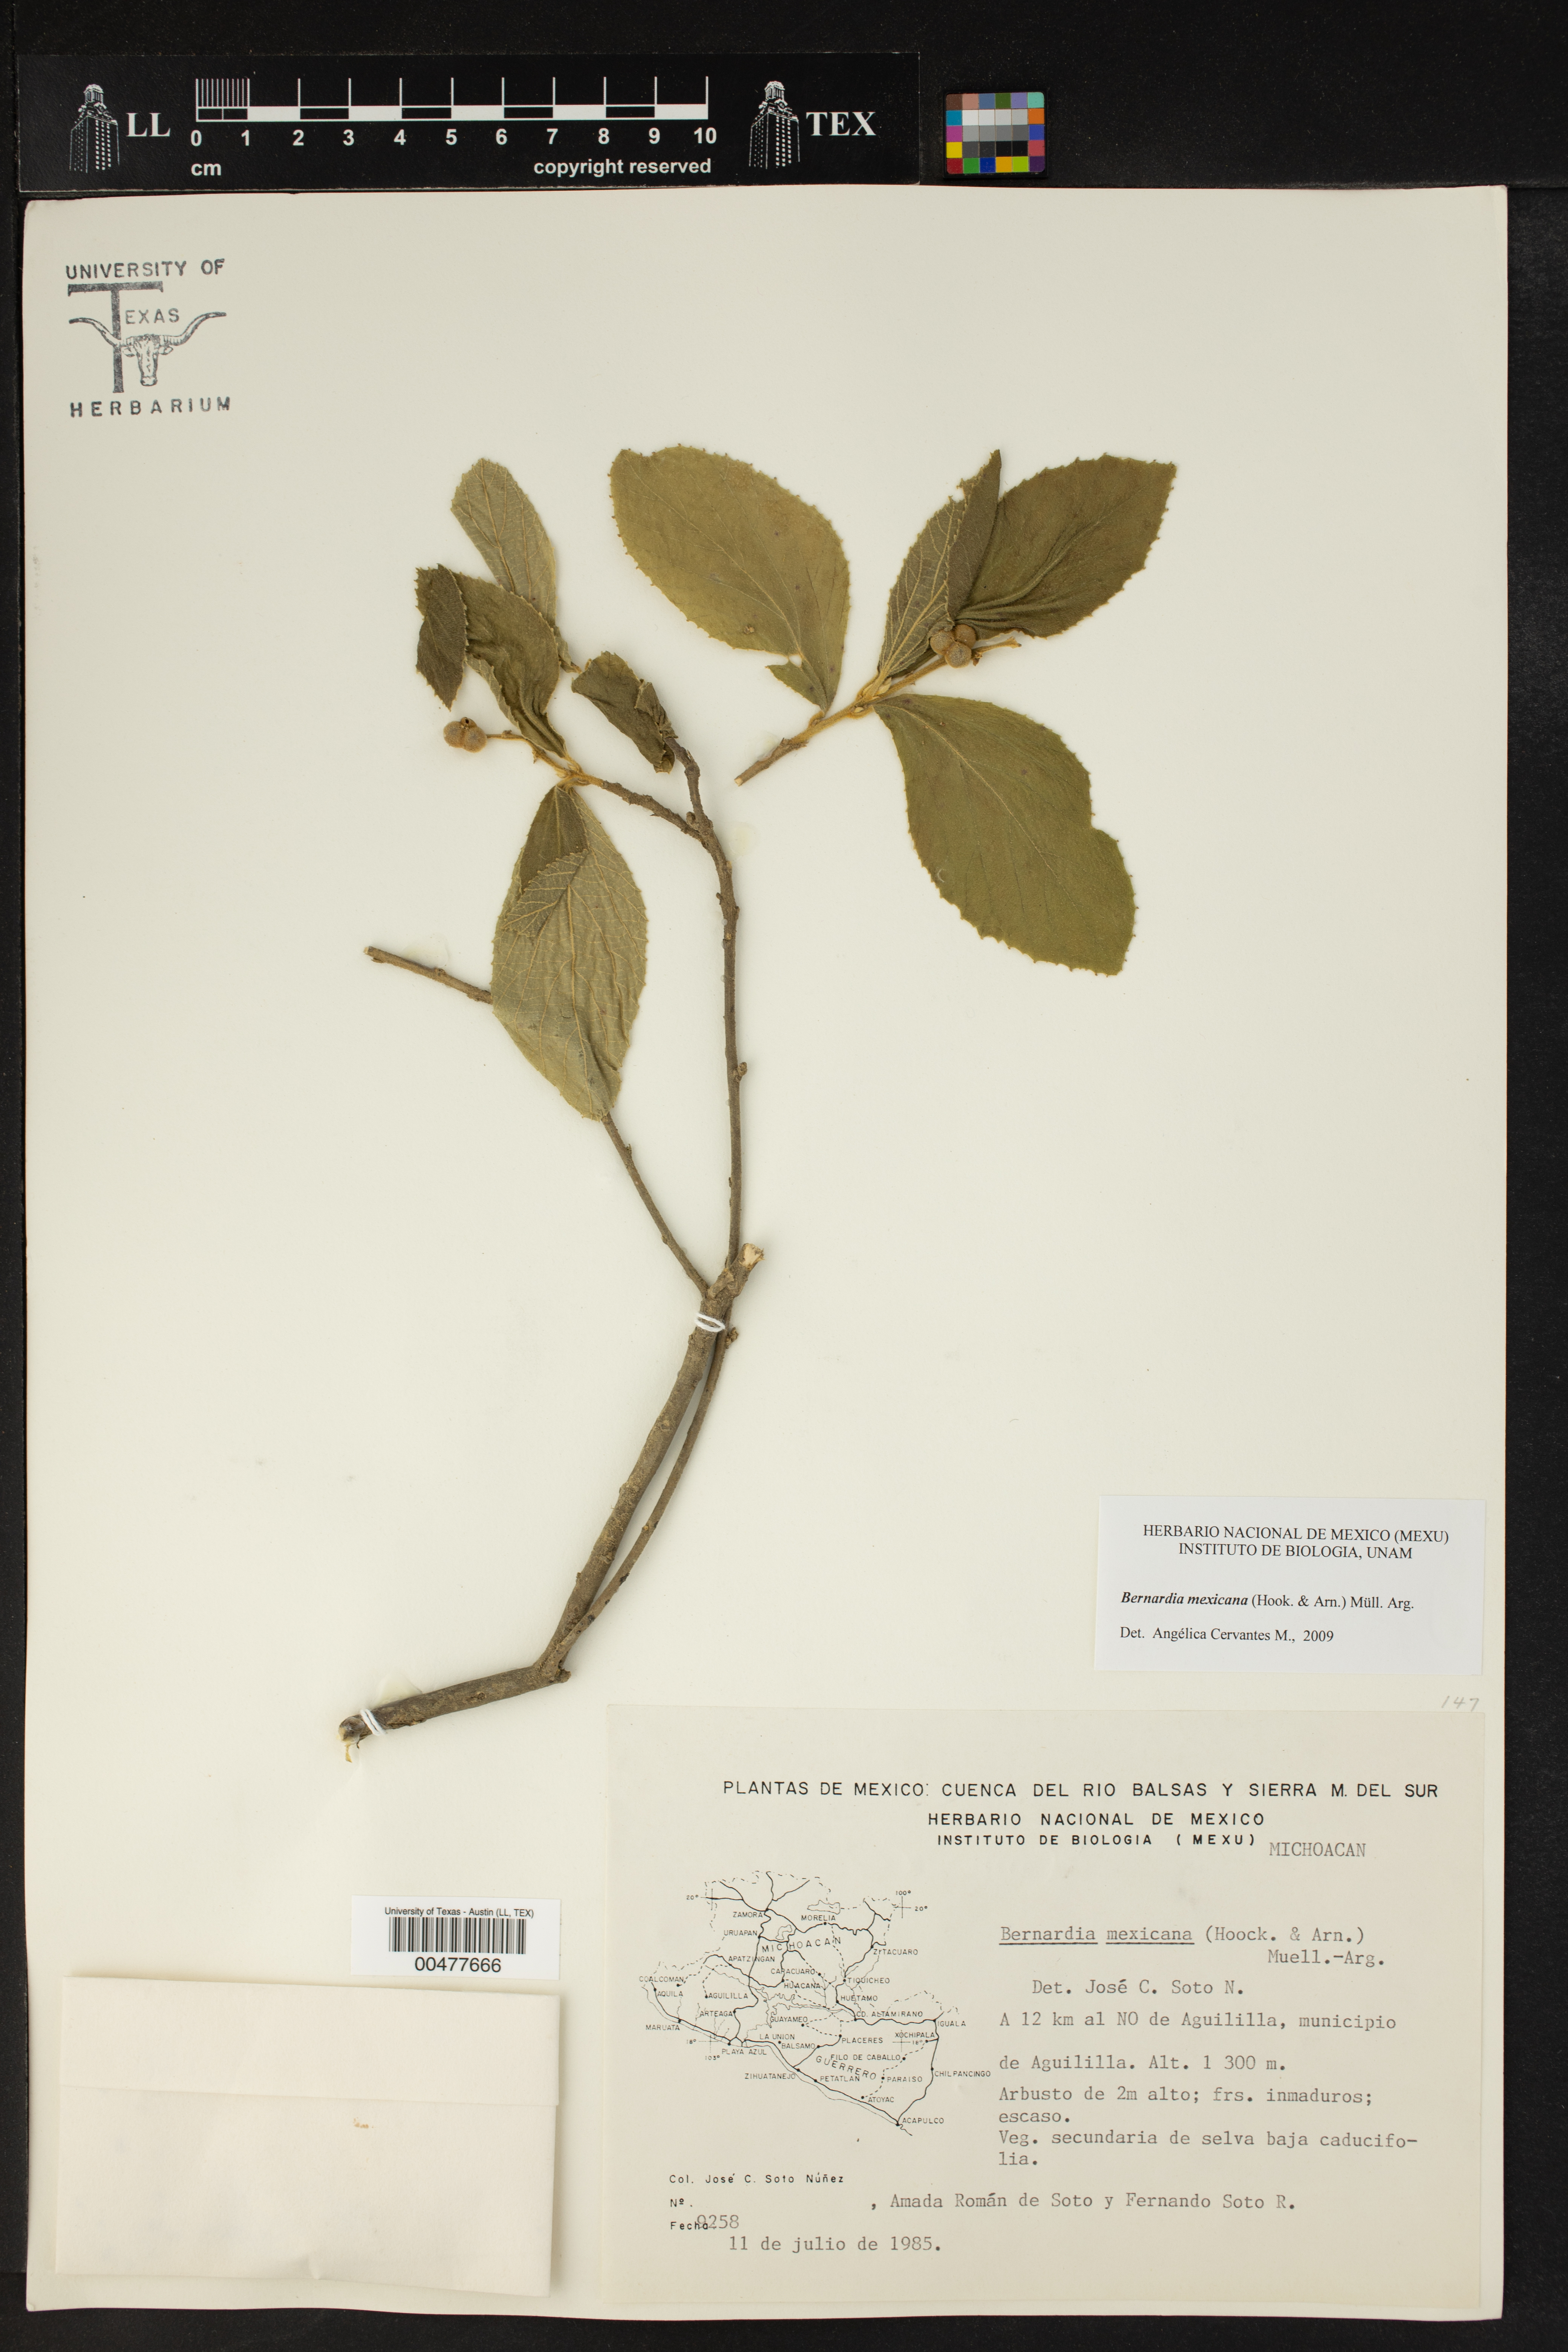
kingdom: Plantae
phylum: Tracheophyta
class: Magnoliopsida
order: Malpighiales
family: Euphorbiaceae
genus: Bernardia
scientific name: Bernardia mexicana
